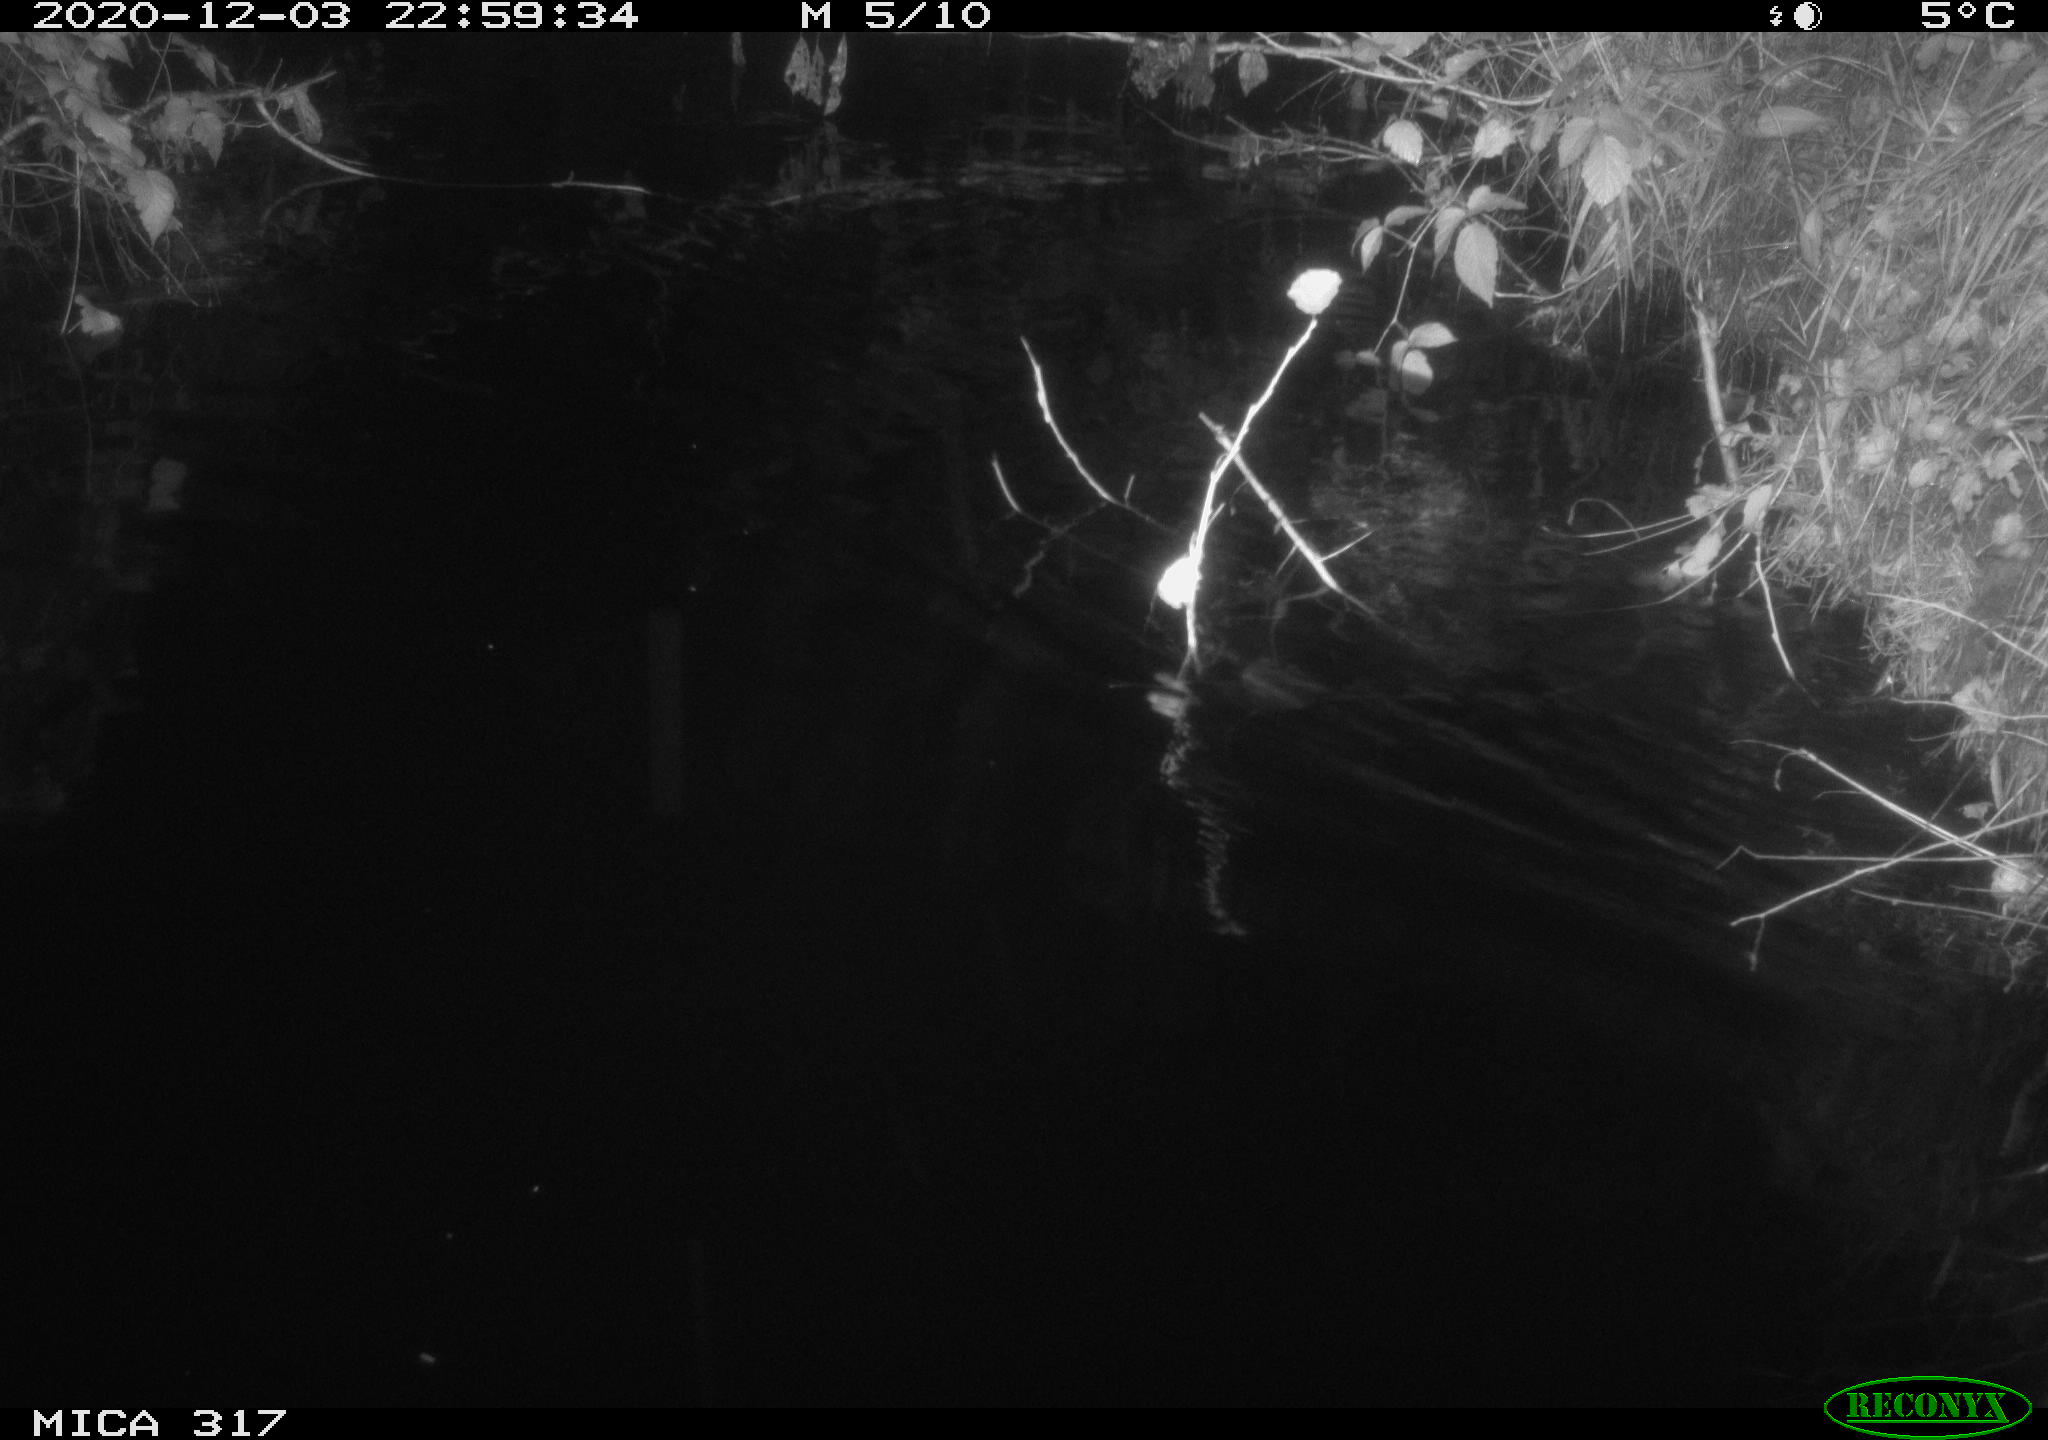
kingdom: Animalia
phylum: Chordata
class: Mammalia
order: Rodentia
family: Muridae
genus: Rattus
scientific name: Rattus norvegicus
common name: Brown rat
